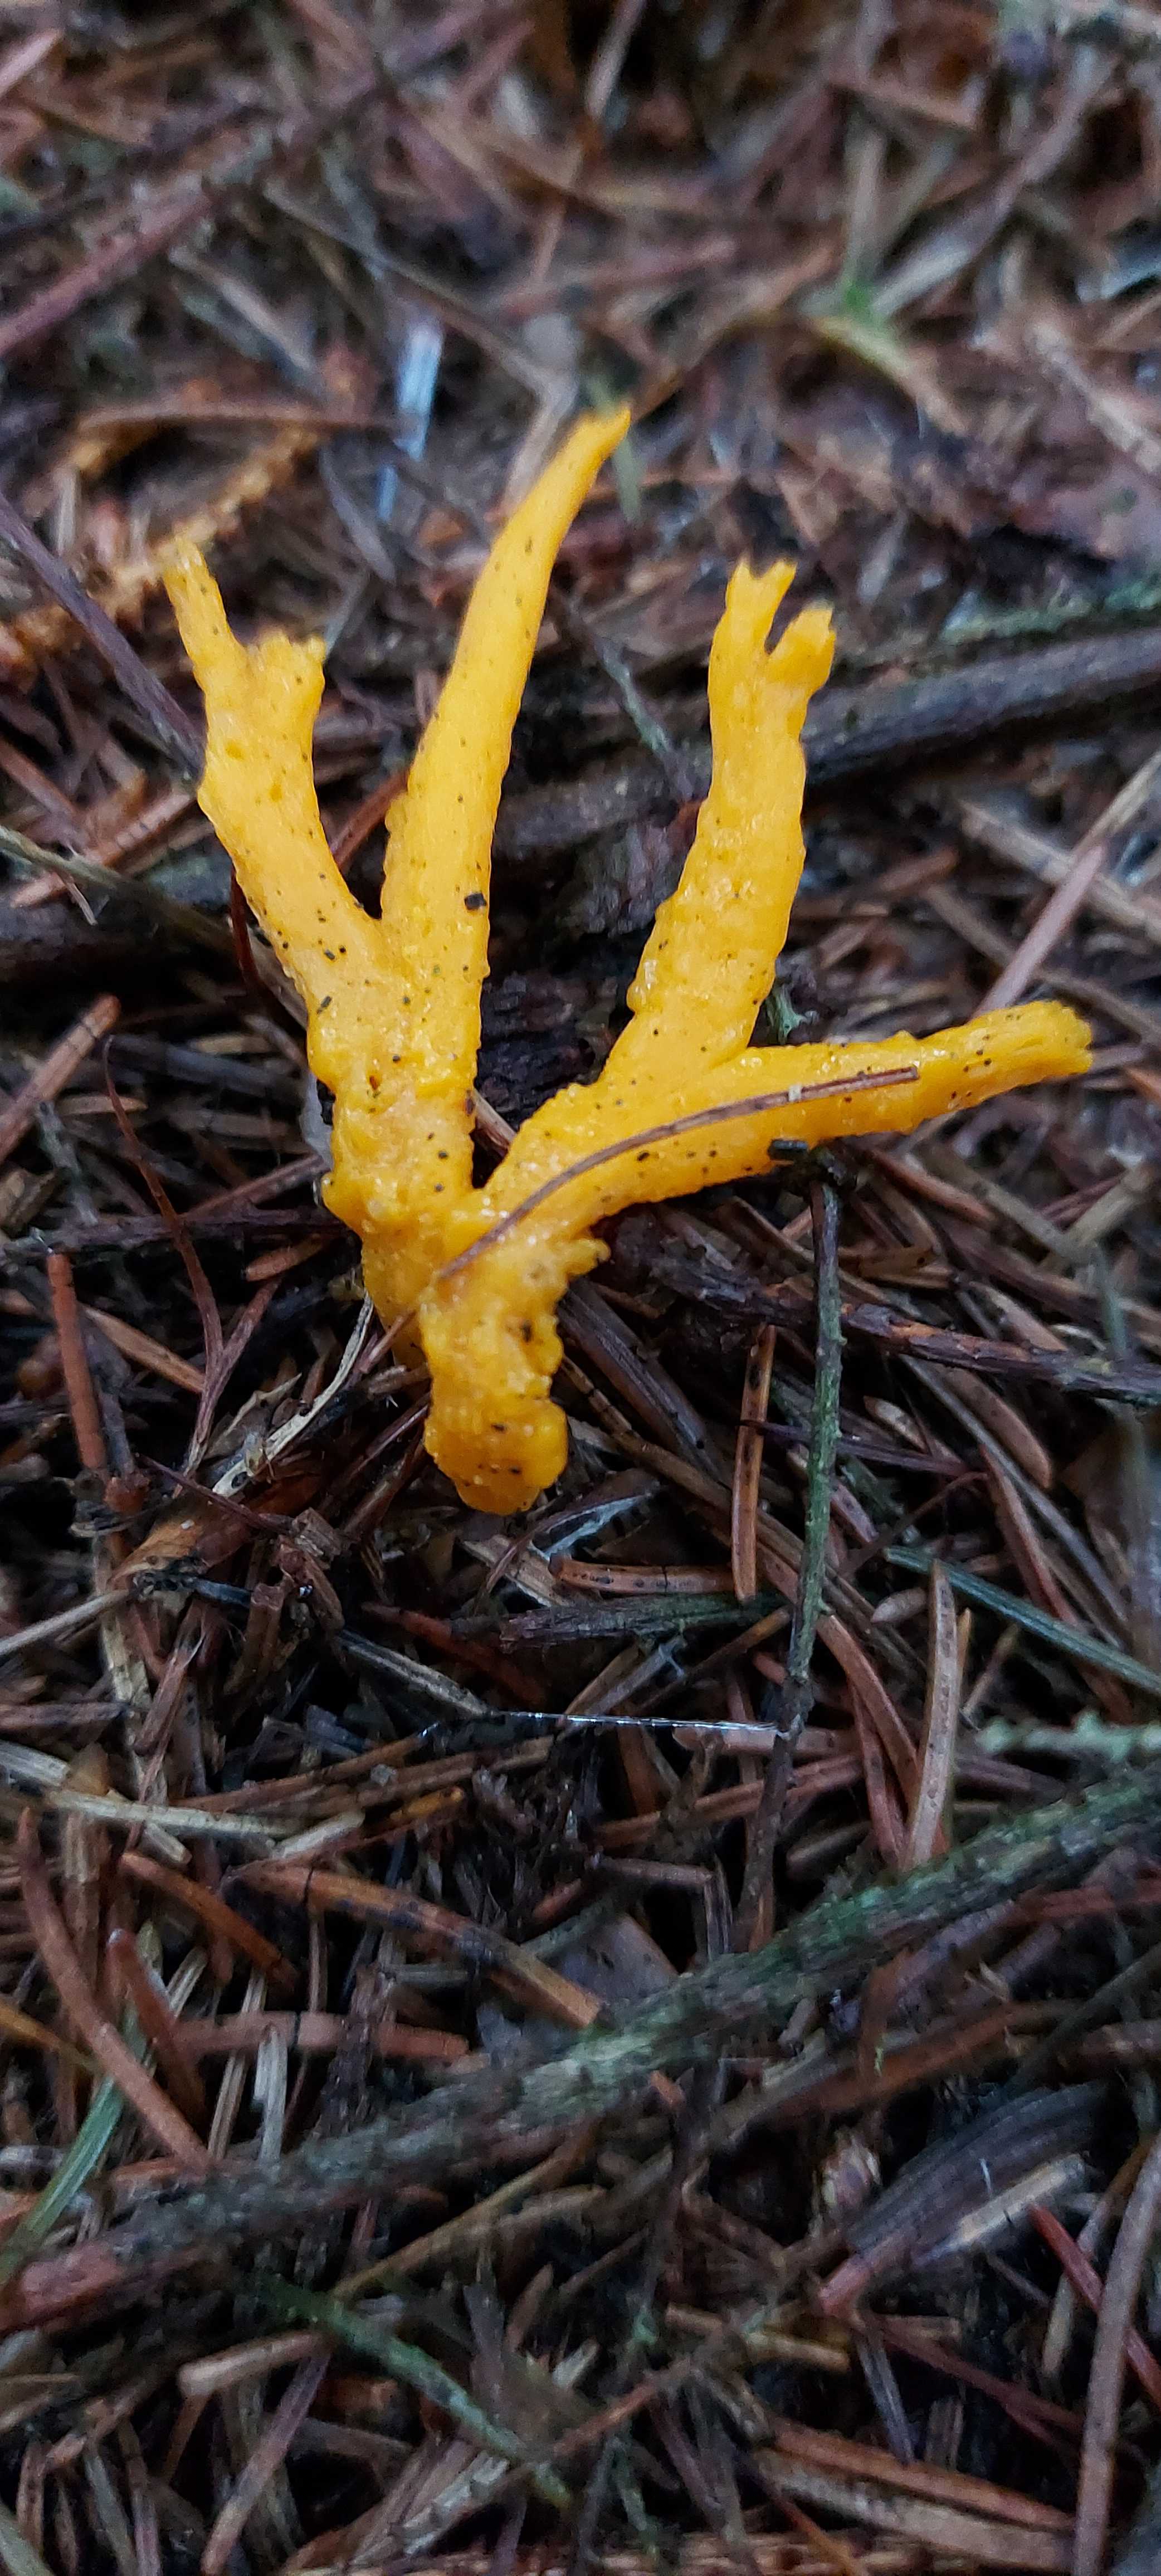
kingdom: Fungi
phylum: Basidiomycota
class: Dacrymycetes
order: Dacrymycetales
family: Dacrymycetaceae
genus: Calocera
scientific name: Calocera viscosa
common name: almindelig guldgaffel
